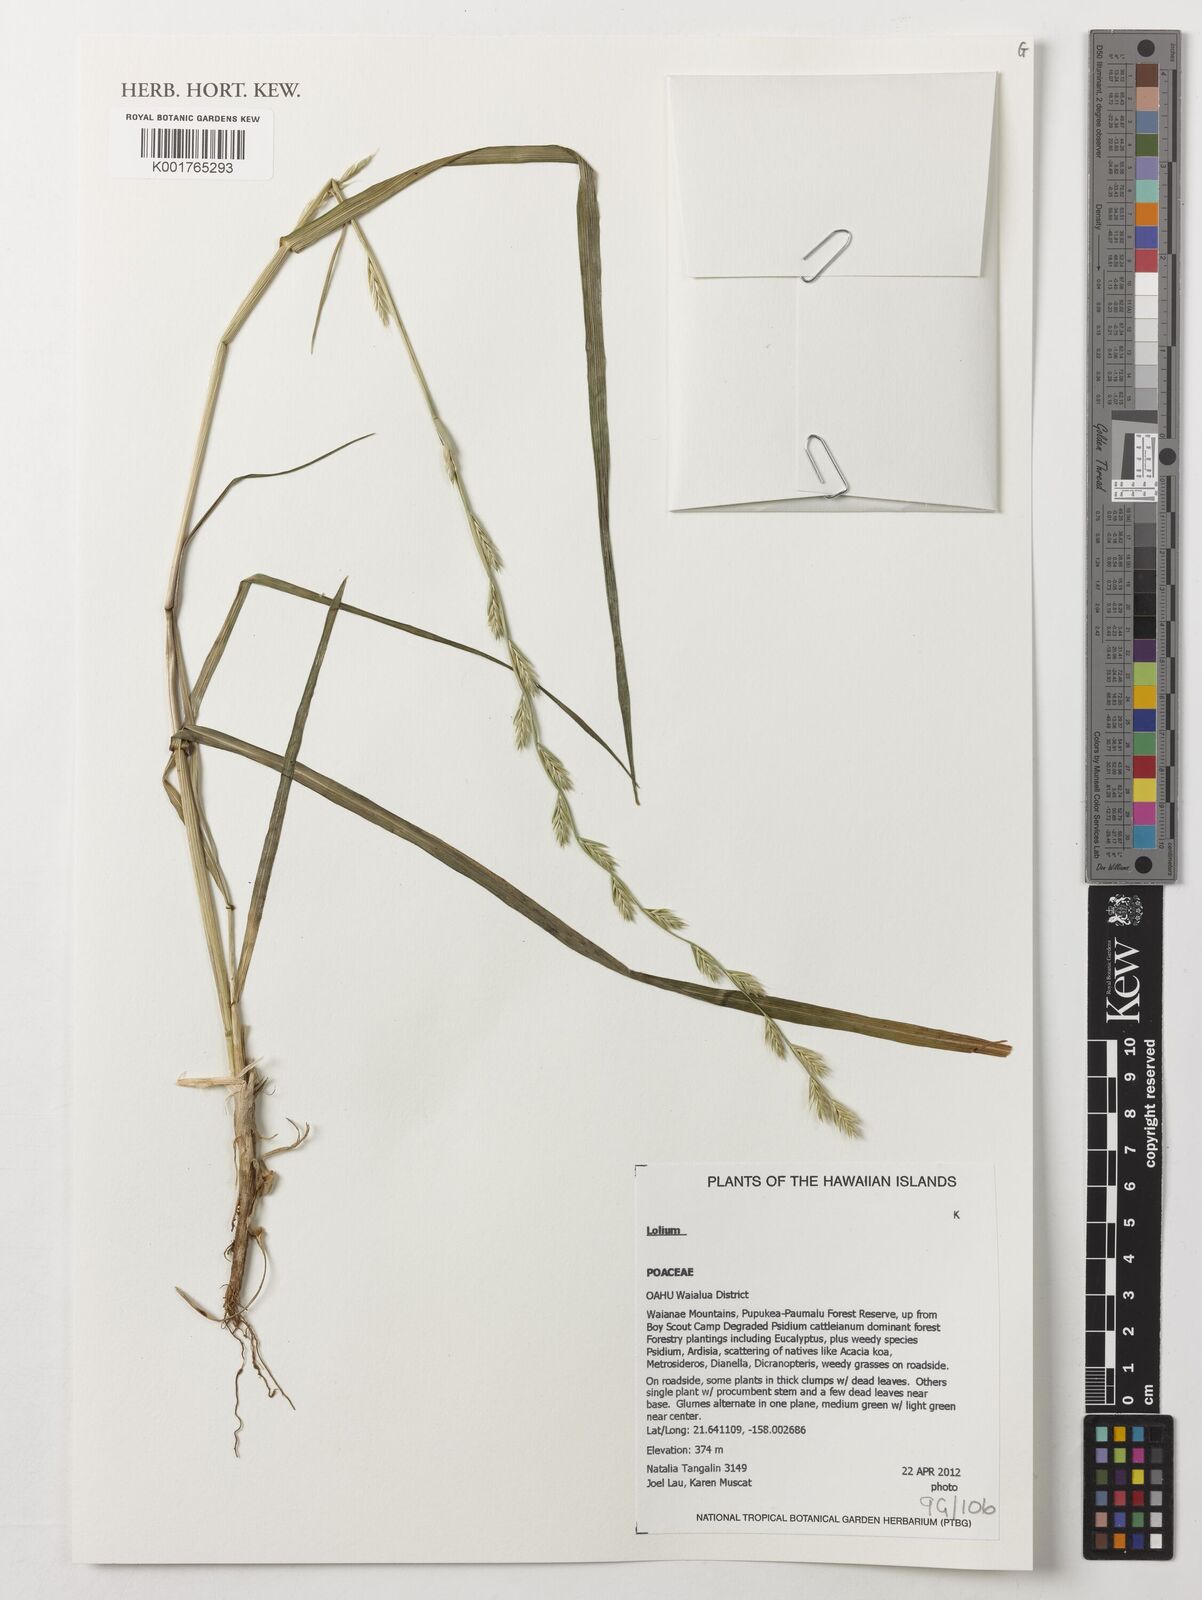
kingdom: Plantae
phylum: Tracheophyta
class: Liliopsida
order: Poales
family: Poaceae
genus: Lolium
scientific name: Lolium
